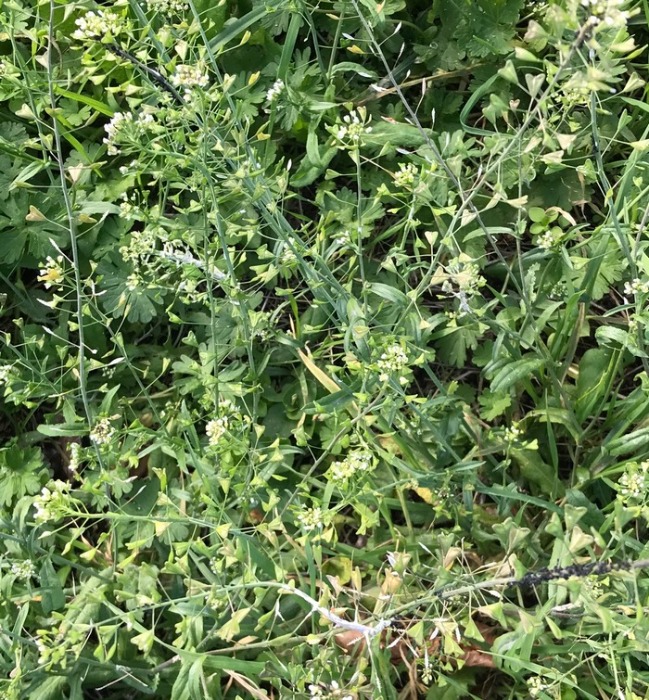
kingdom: Plantae
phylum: Tracheophyta
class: Magnoliopsida
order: Brassicales
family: Brassicaceae
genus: Capsella
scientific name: Capsella bursa-pastoris
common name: Hyrdetaske
